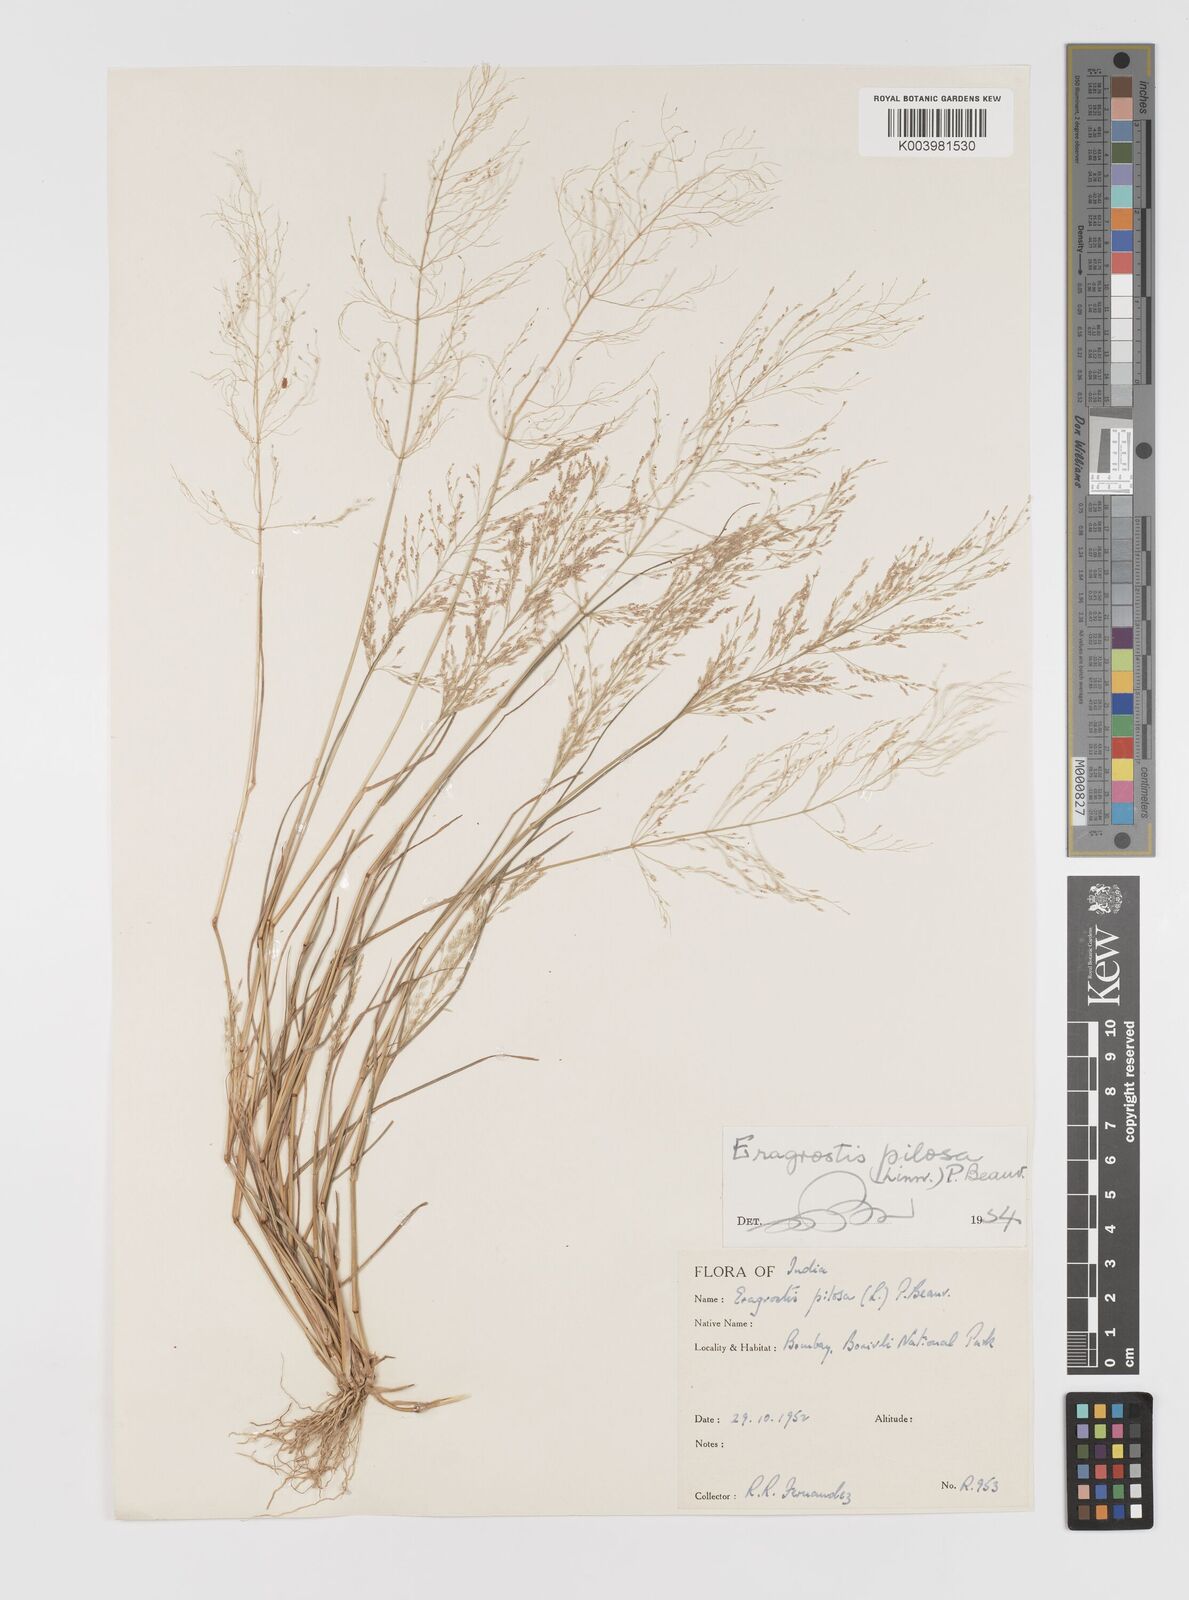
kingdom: Plantae
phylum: Tracheophyta
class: Liliopsida
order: Poales
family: Poaceae
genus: Eragrostis
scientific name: Eragrostis pilosa
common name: Indian lovegrass
